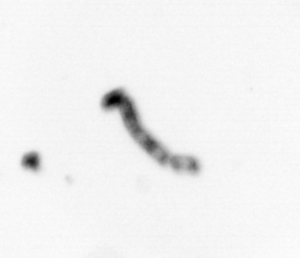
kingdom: Chromista
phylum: Ochrophyta
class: Bacillariophyceae
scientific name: Bacillariophyceae
